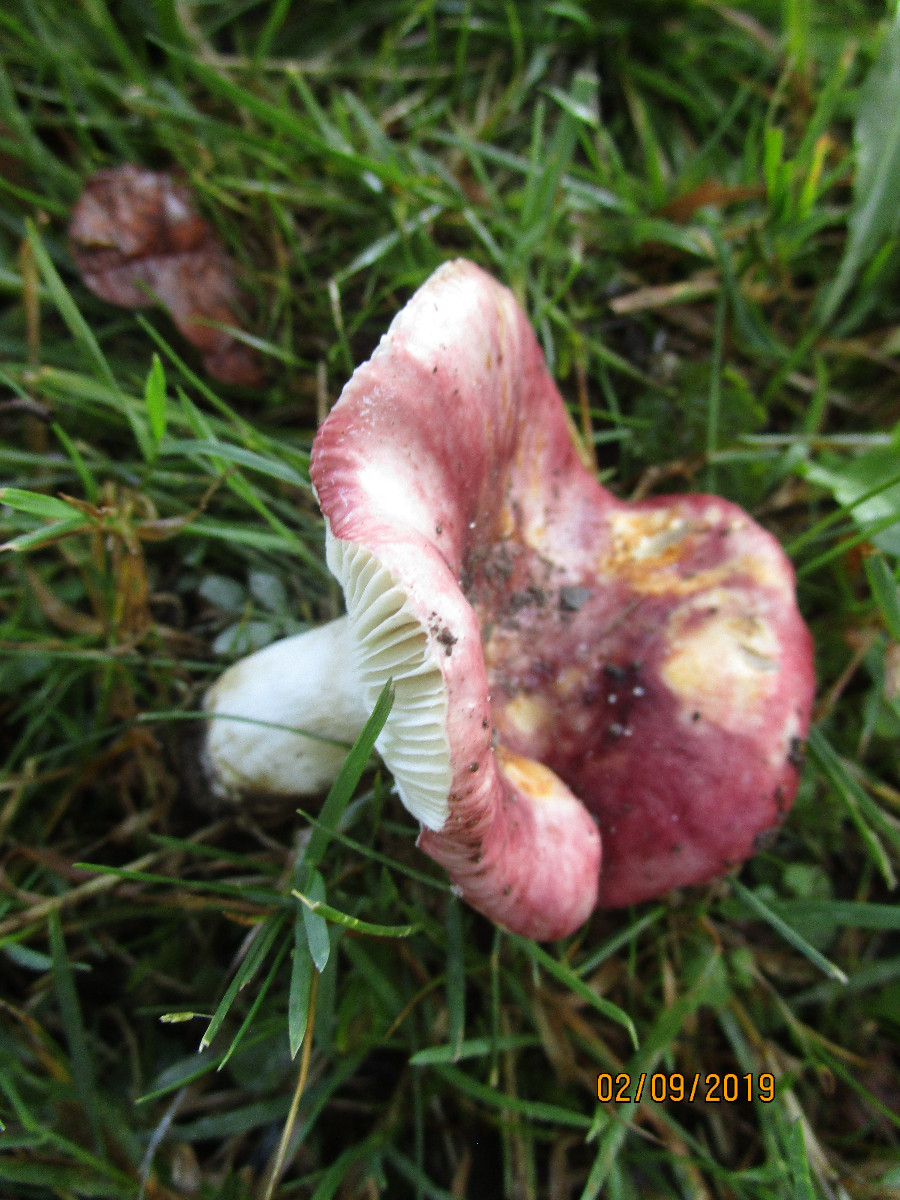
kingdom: Fungi
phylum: Basidiomycota
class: Agaricomycetes
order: Russulales
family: Russulaceae
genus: Russula
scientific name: Russula graveolens
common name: bugtet skørhat
